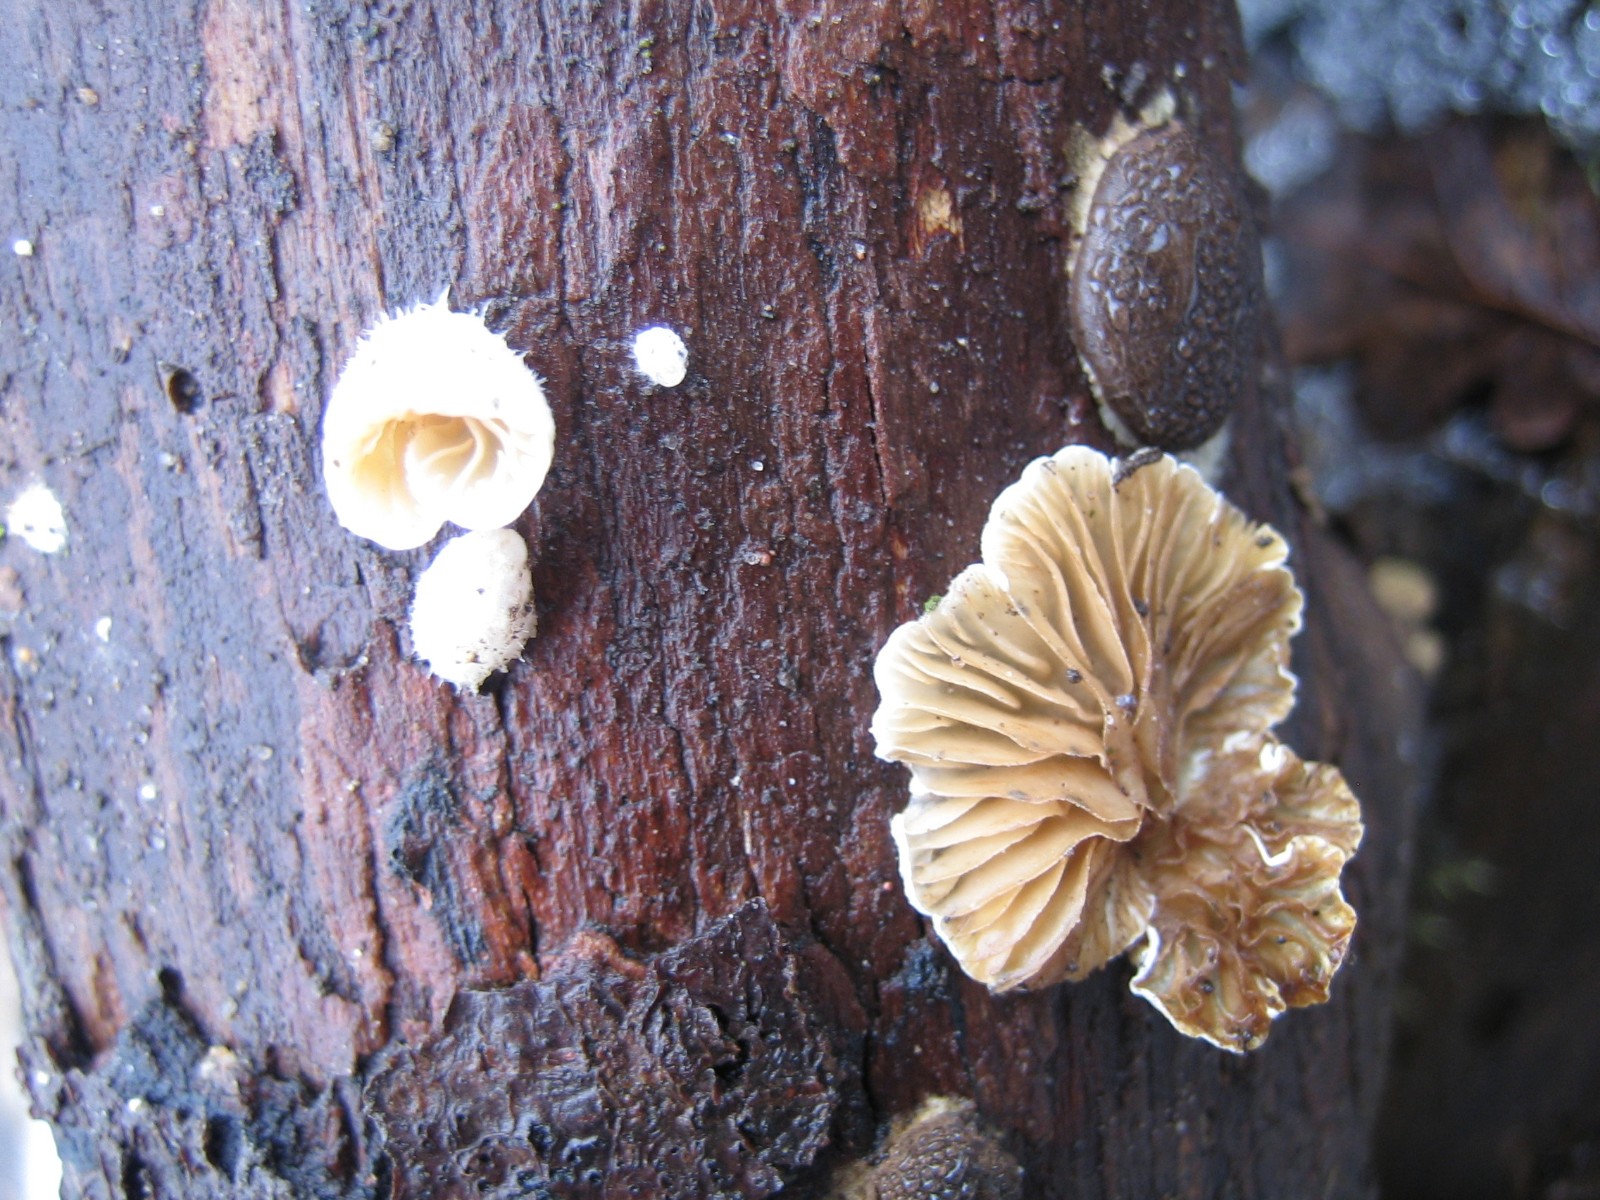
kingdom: Fungi
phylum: Basidiomycota
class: Agaricomycetes
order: Agaricales
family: Crepidotaceae
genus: Crepidotus
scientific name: Crepidotus
